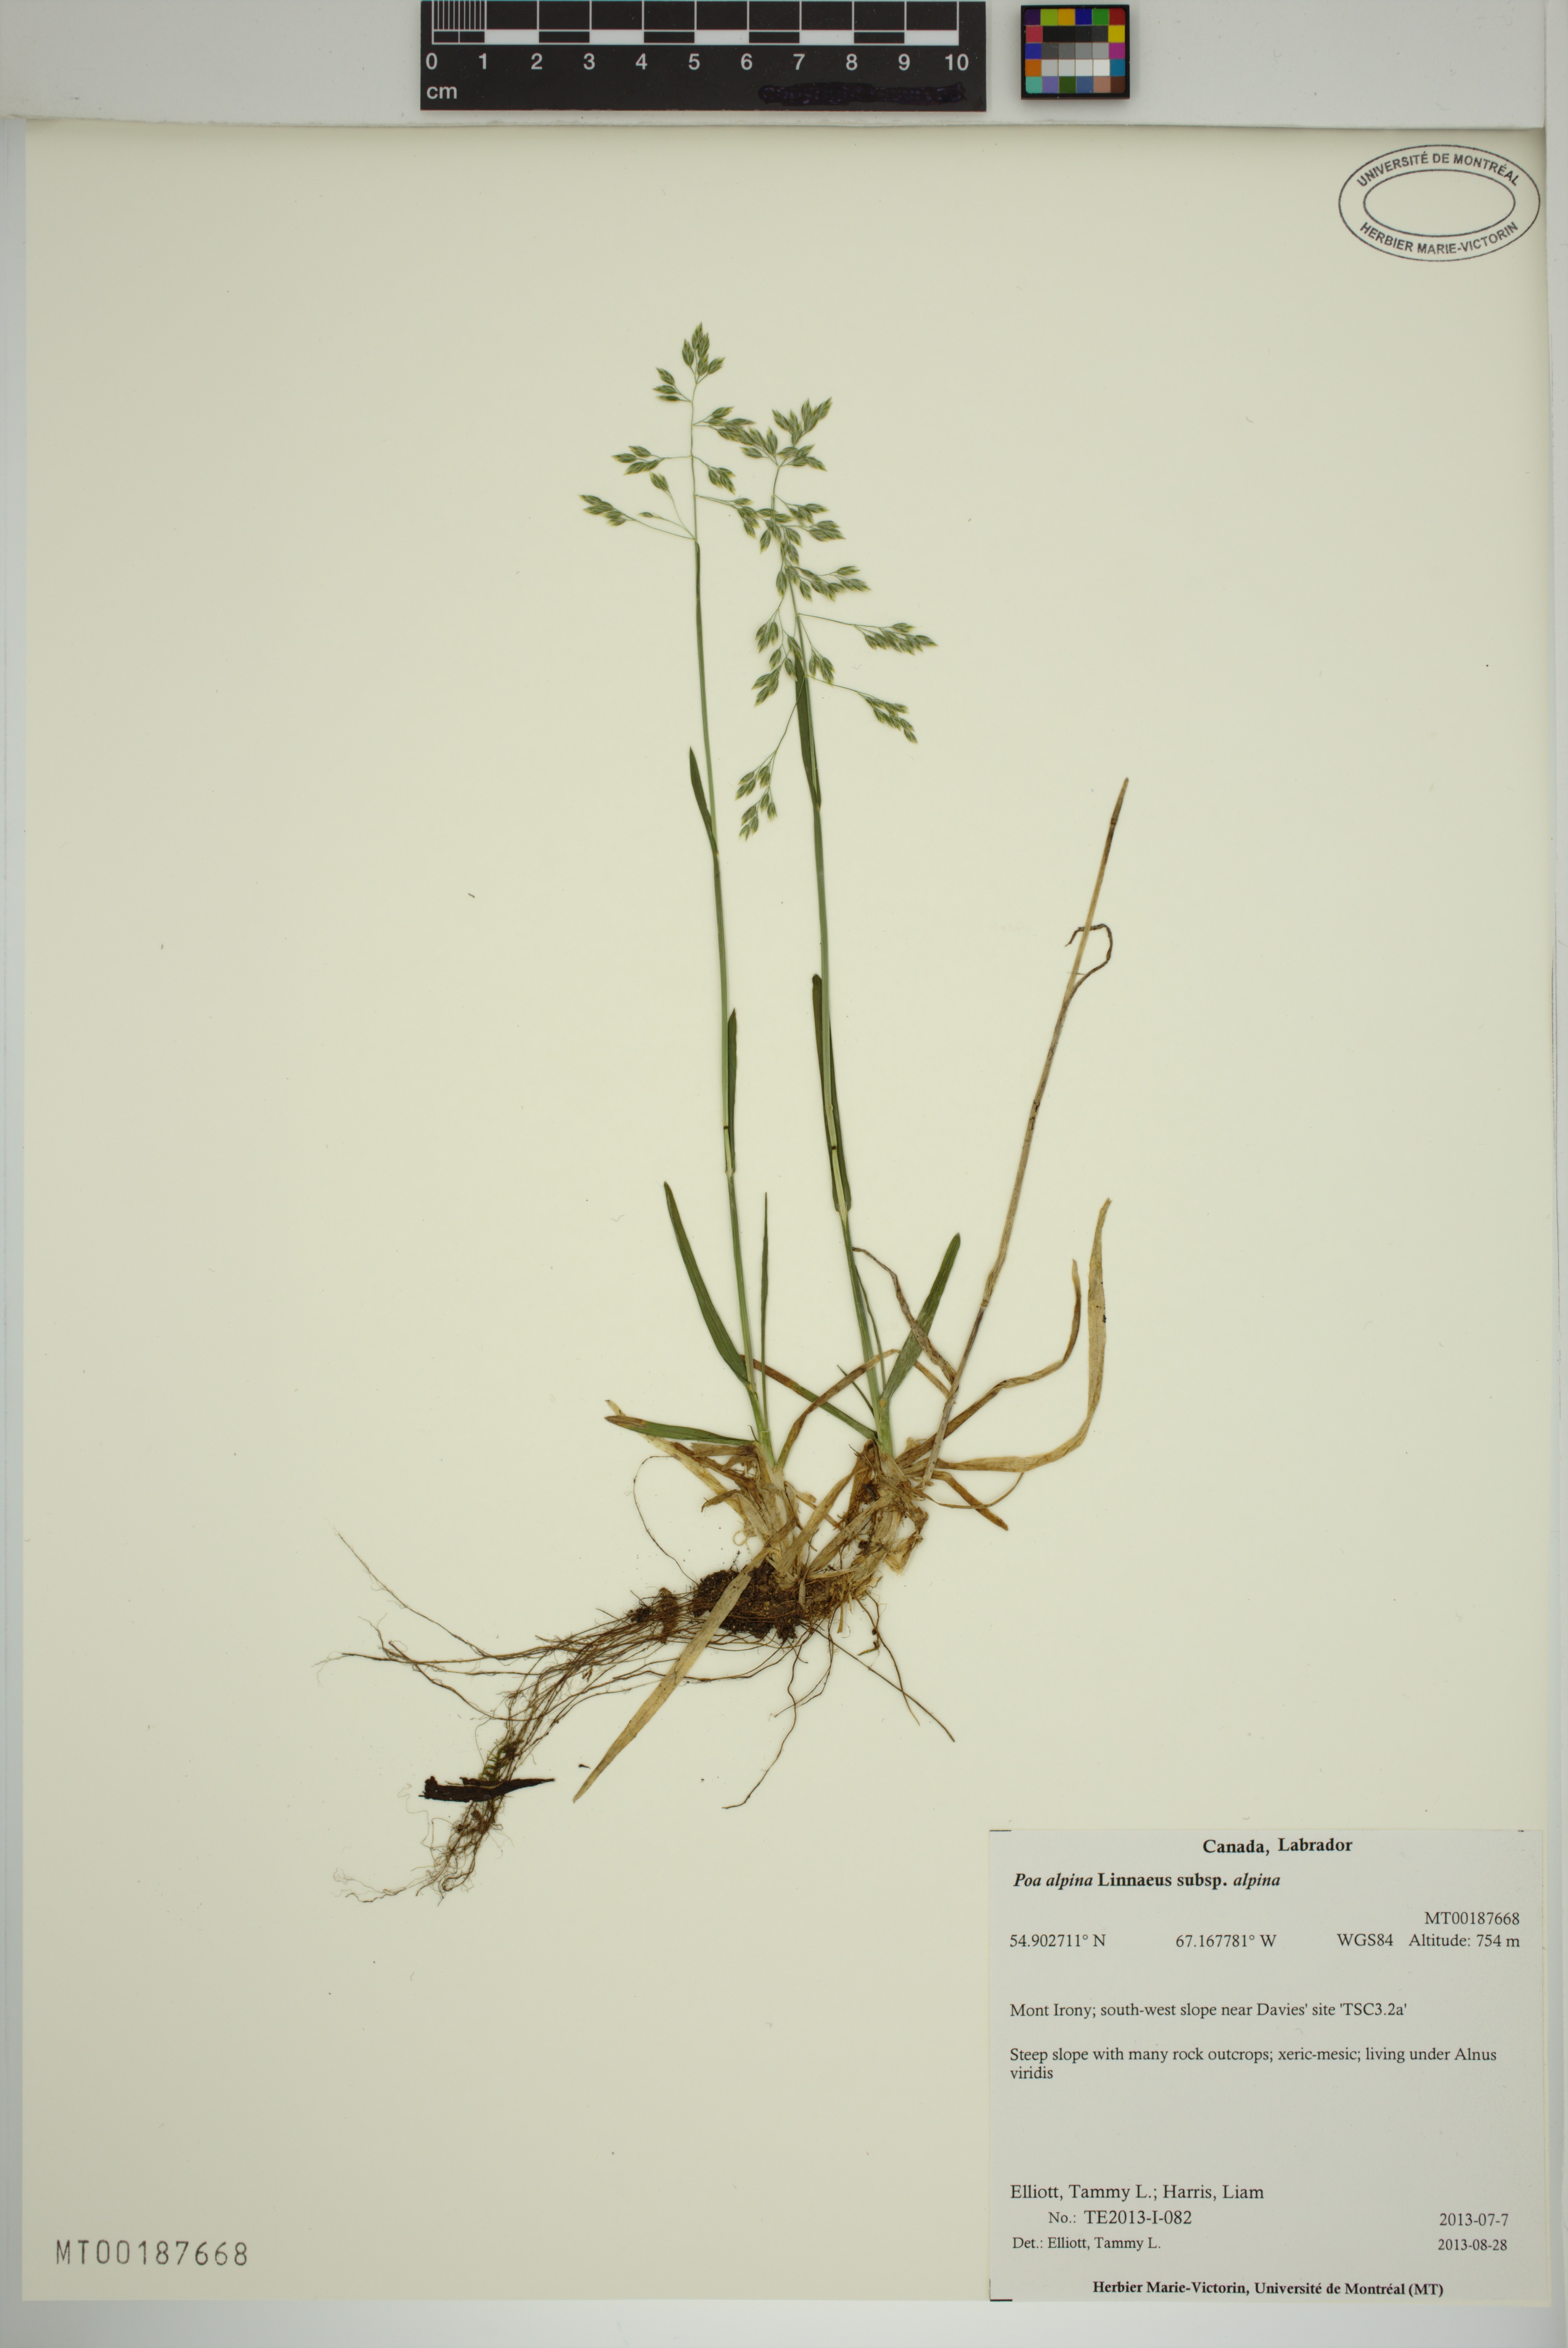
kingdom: Plantae
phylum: Tracheophyta
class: Liliopsida
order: Poales
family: Poaceae
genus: Poa
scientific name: Poa alpina
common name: Alpine bluegrass
